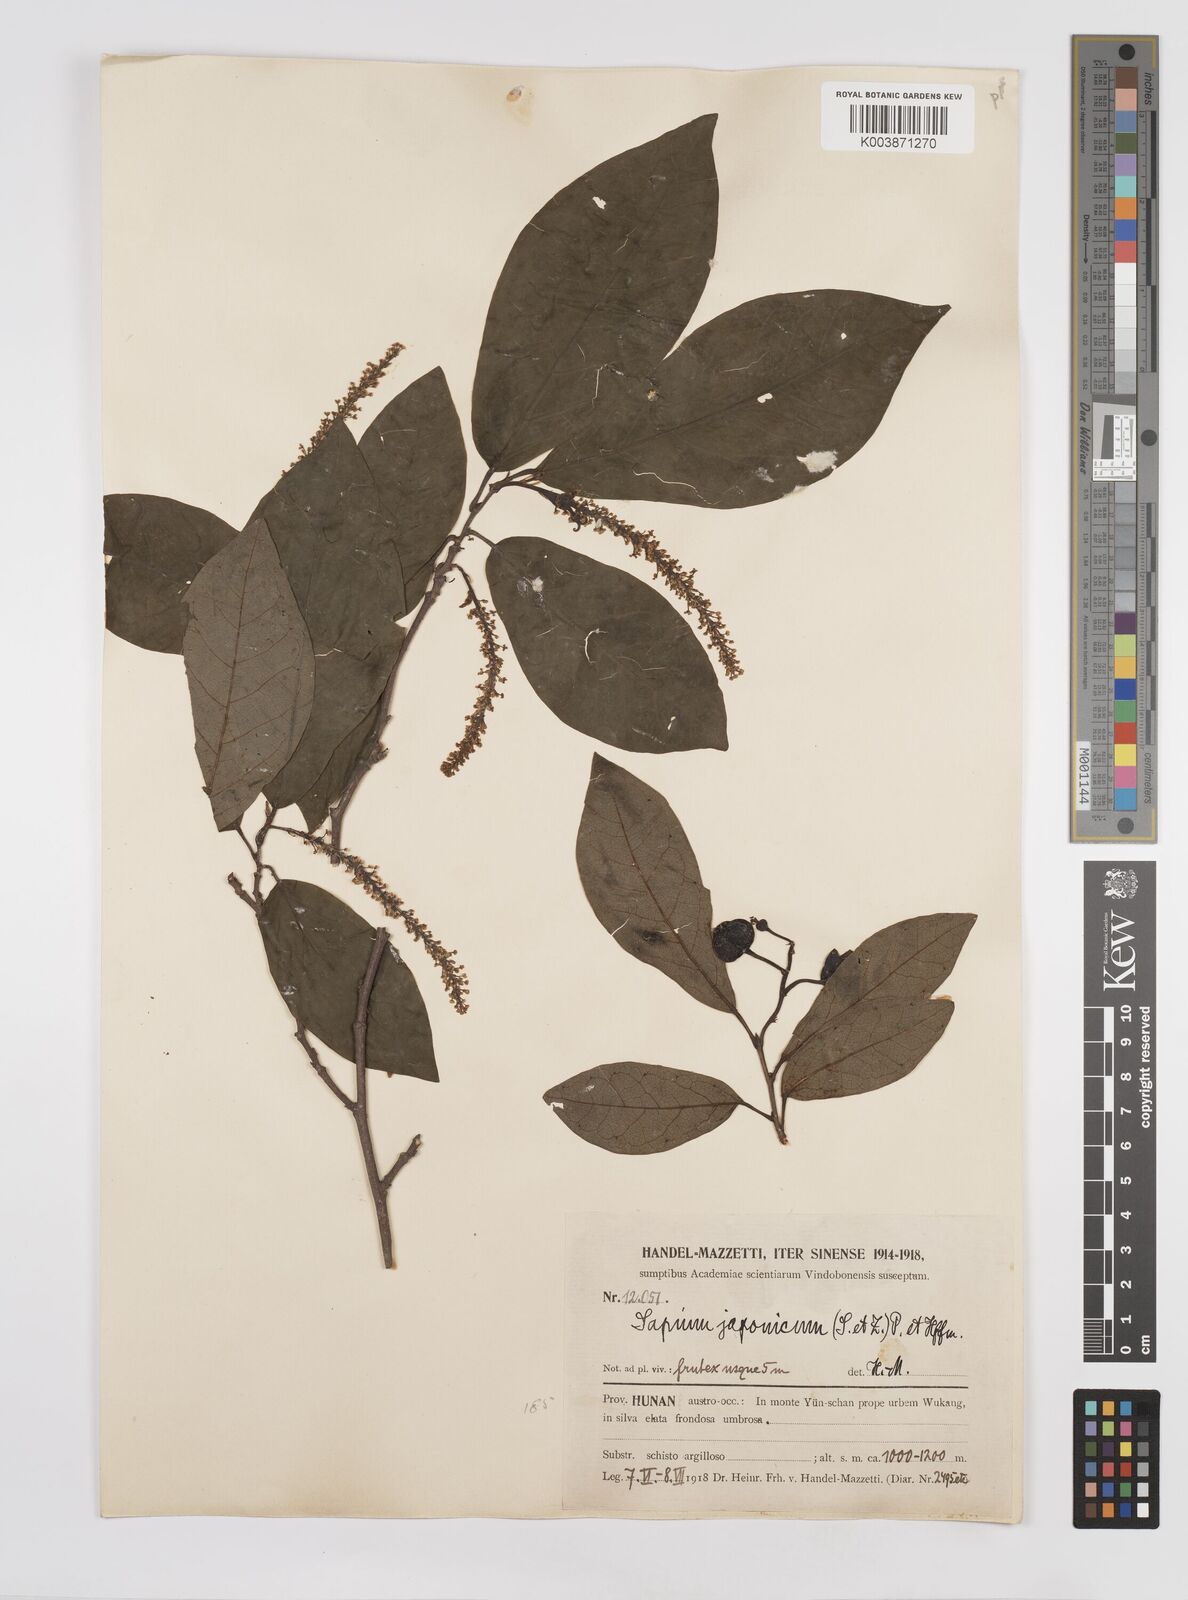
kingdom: Plantae
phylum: Tracheophyta
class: Magnoliopsida
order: Malpighiales
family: Euphorbiaceae
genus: Neoshirakia
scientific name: Neoshirakia japonica
